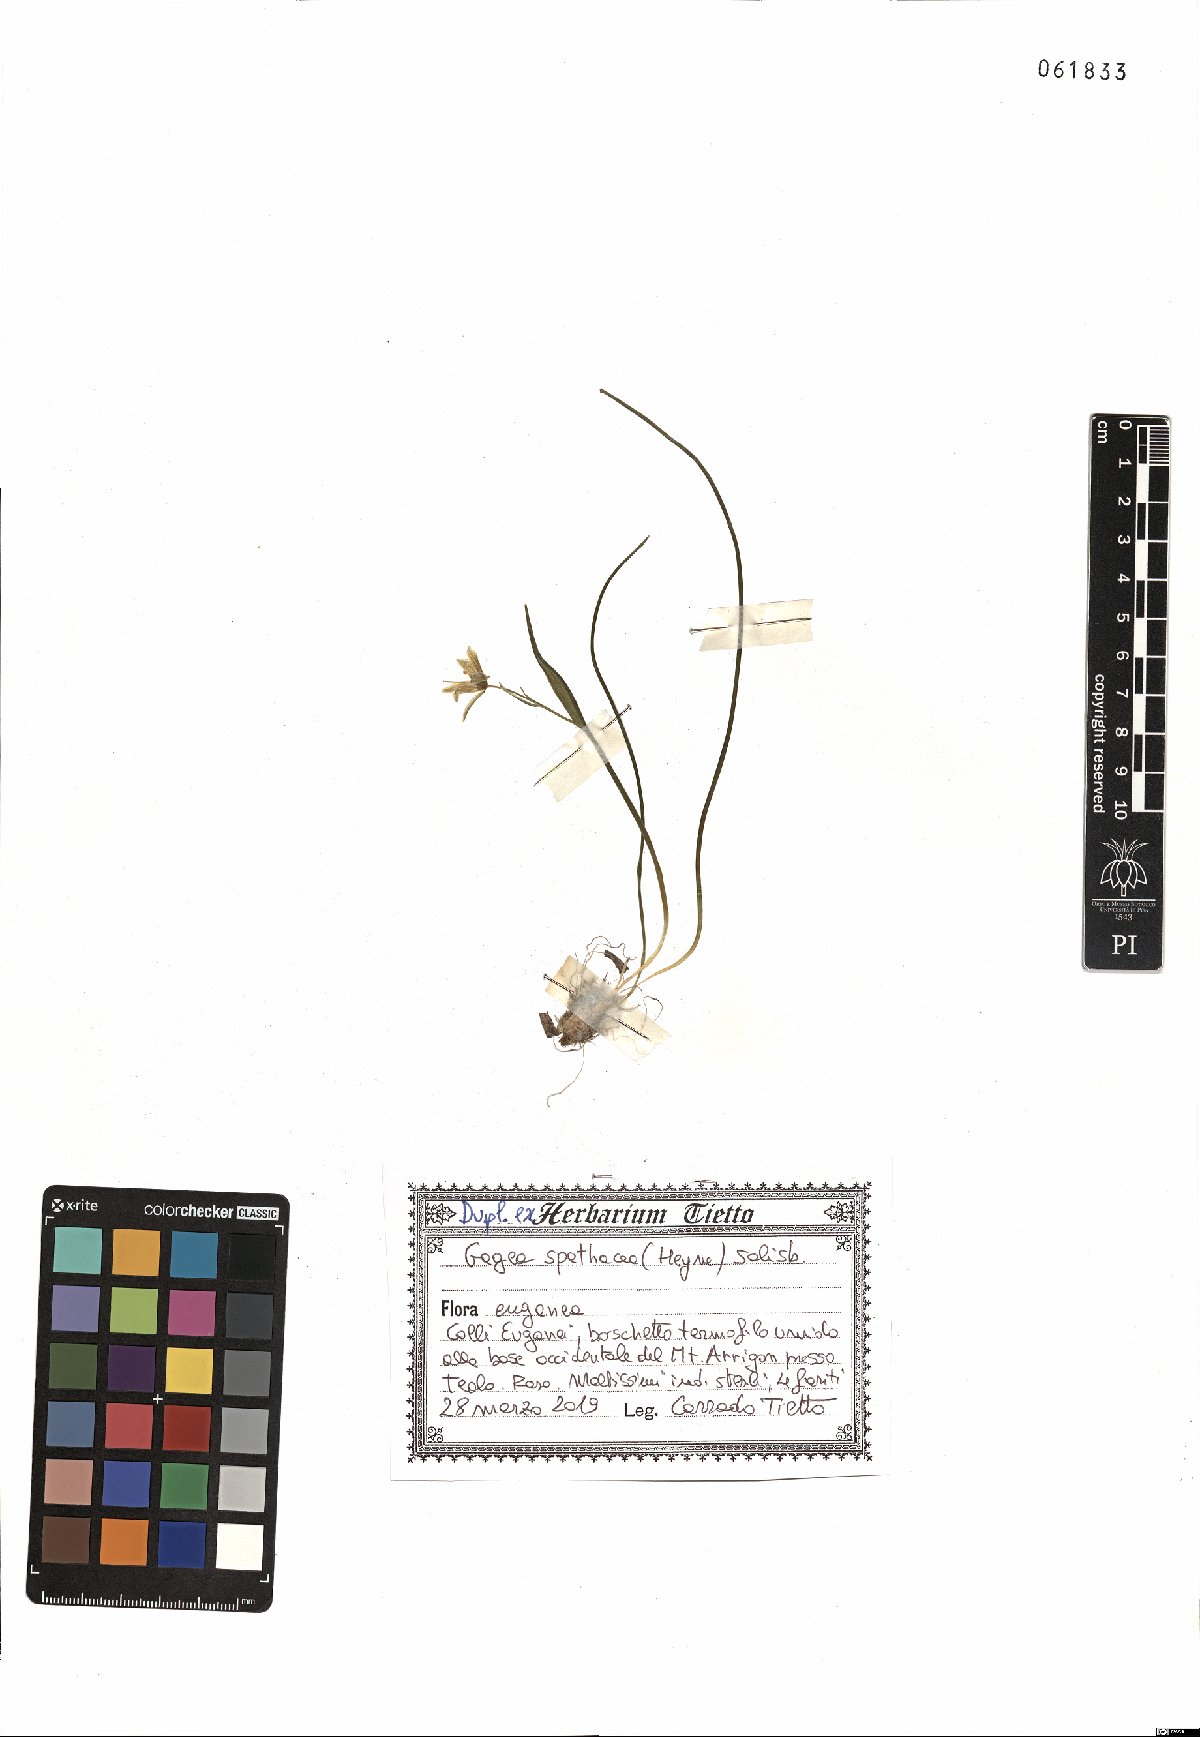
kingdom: Plantae
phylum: Tracheophyta
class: Liliopsida
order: Liliales
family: Liliaceae
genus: Gagea
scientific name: Gagea spathacea
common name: Belgian gagea
